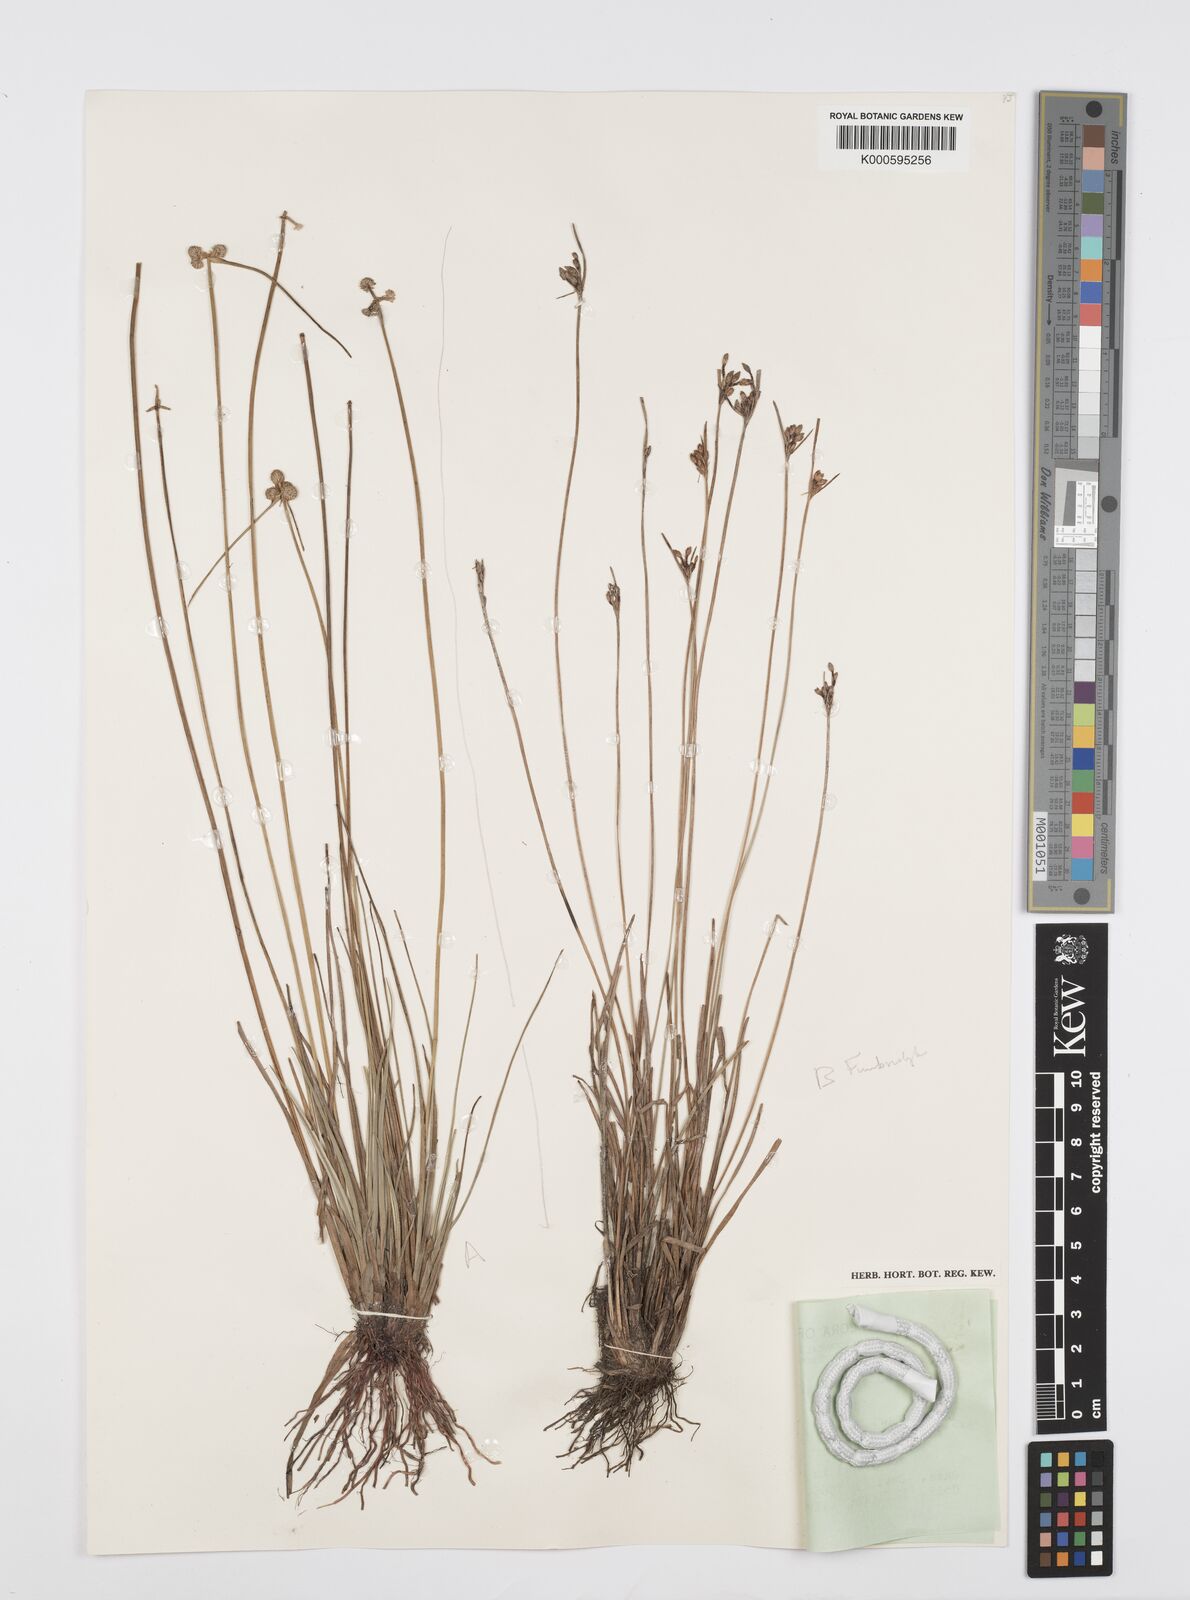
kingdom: Plantae
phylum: Tracheophyta
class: Liliopsida
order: Poales
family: Cyperaceae
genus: Cyperus
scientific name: Cyperus albescens
